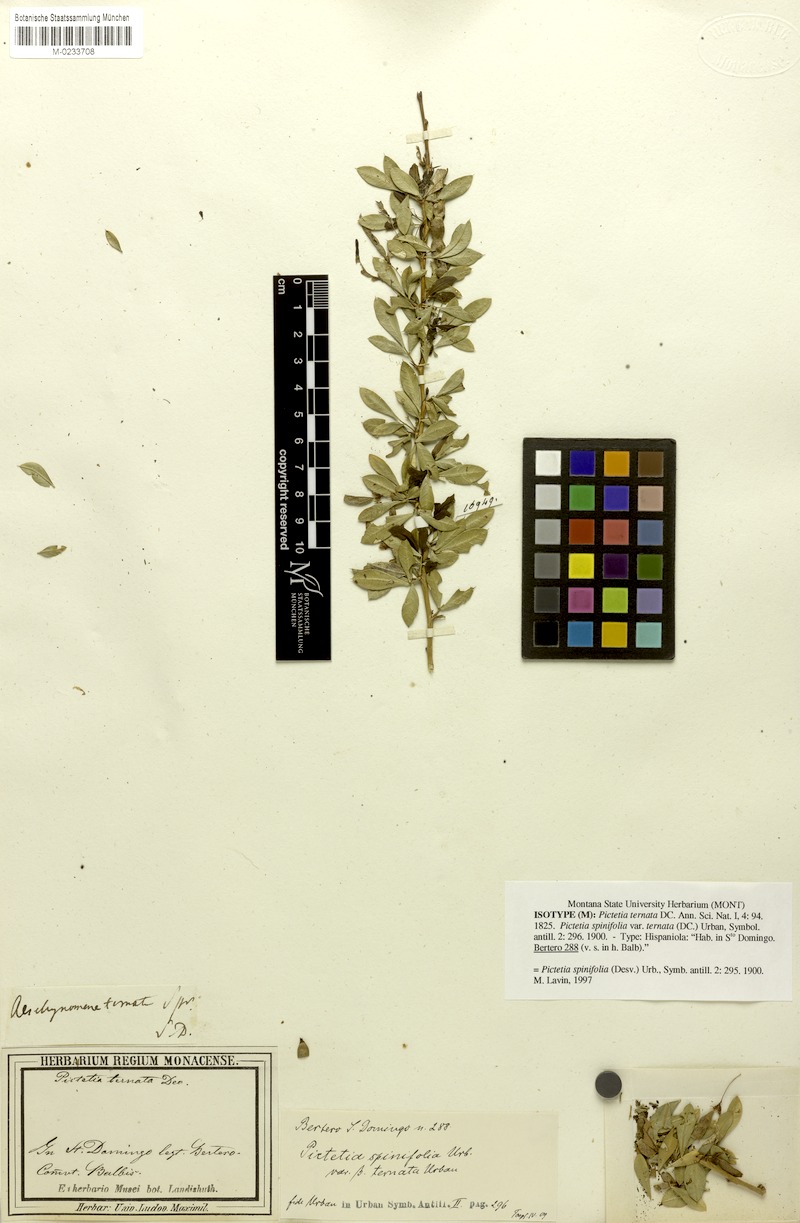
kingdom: Plantae
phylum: Tracheophyta
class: Magnoliopsida
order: Fabales
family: Fabaceae
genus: Pictetia
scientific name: Pictetia sulcata
